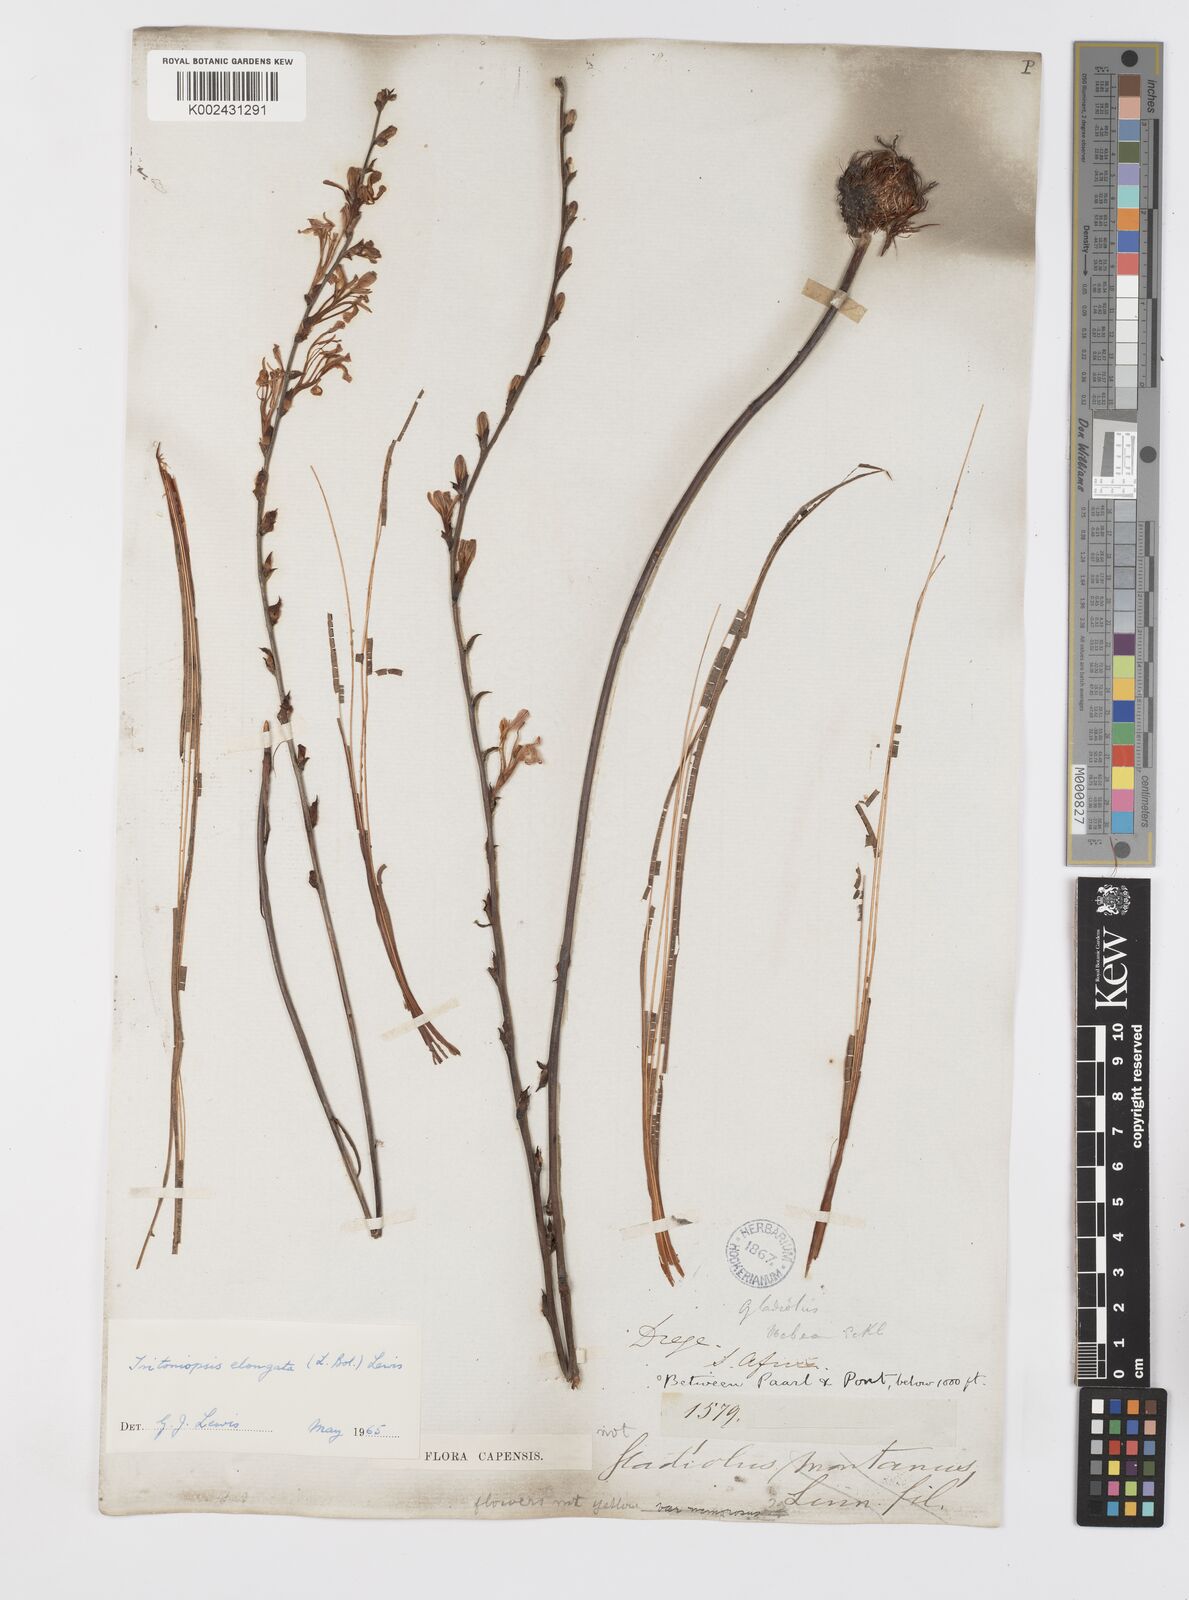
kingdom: Plantae
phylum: Tracheophyta
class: Liliopsida
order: Asparagales
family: Iridaceae
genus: Tritoniopsis
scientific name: Tritoniopsis elongata
